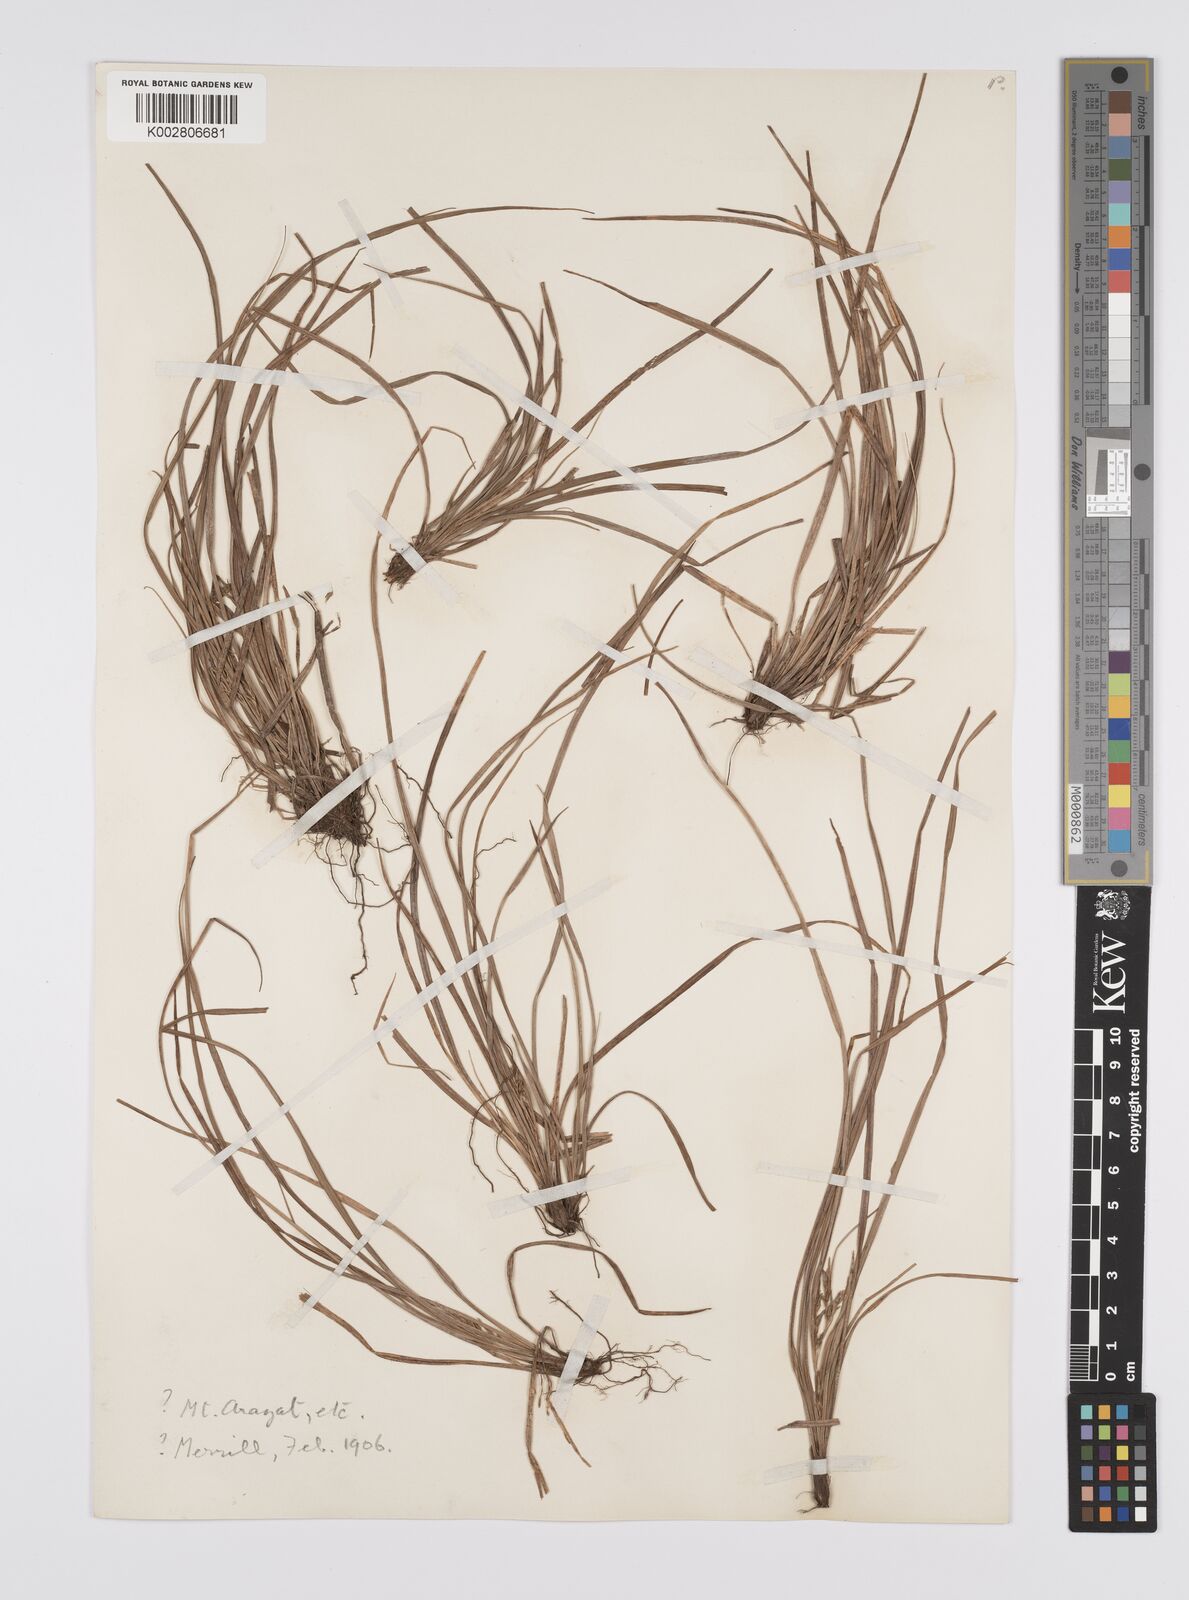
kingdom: Plantae
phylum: Tracheophyta
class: Liliopsida
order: Poales
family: Cyperaceae
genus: Carex
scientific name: Carex rhynchachaenium
